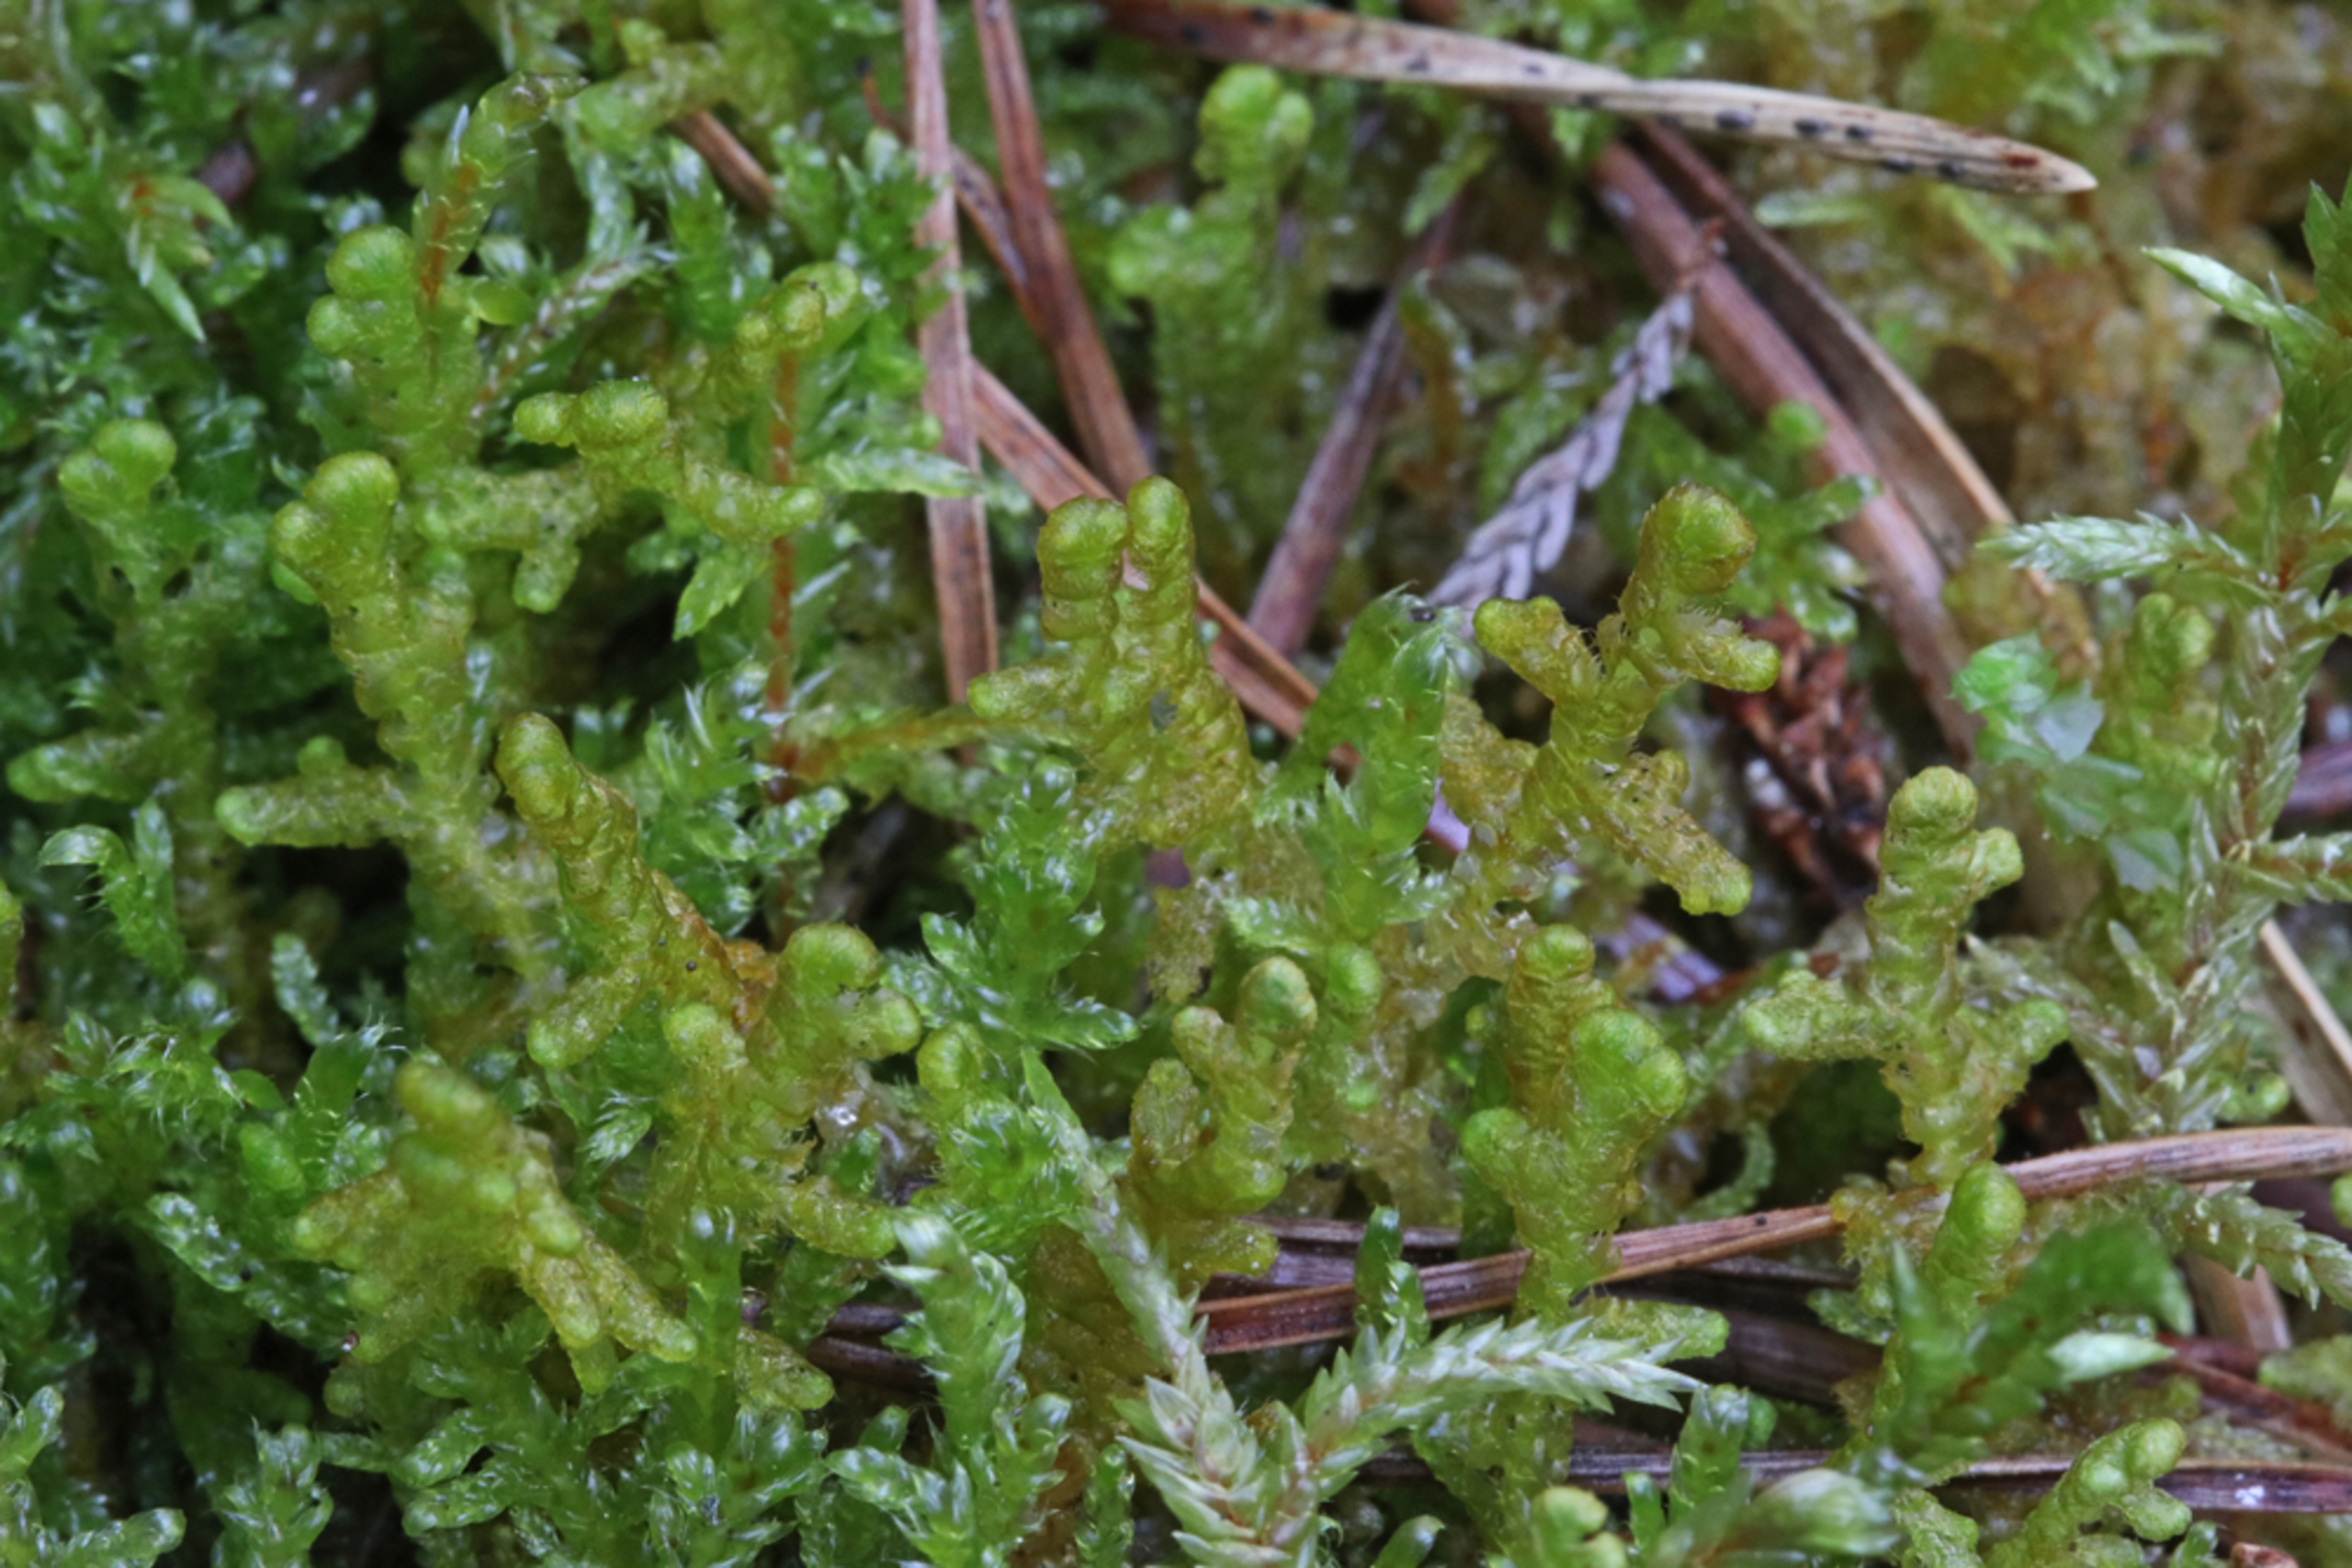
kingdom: Plantae
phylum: Marchantiophyta
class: Jungermanniopsida
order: Ptilidiales
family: Ptilidiaceae
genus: Ptilidium
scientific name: Ptilidium ciliare
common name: Almindelig frynsemos
